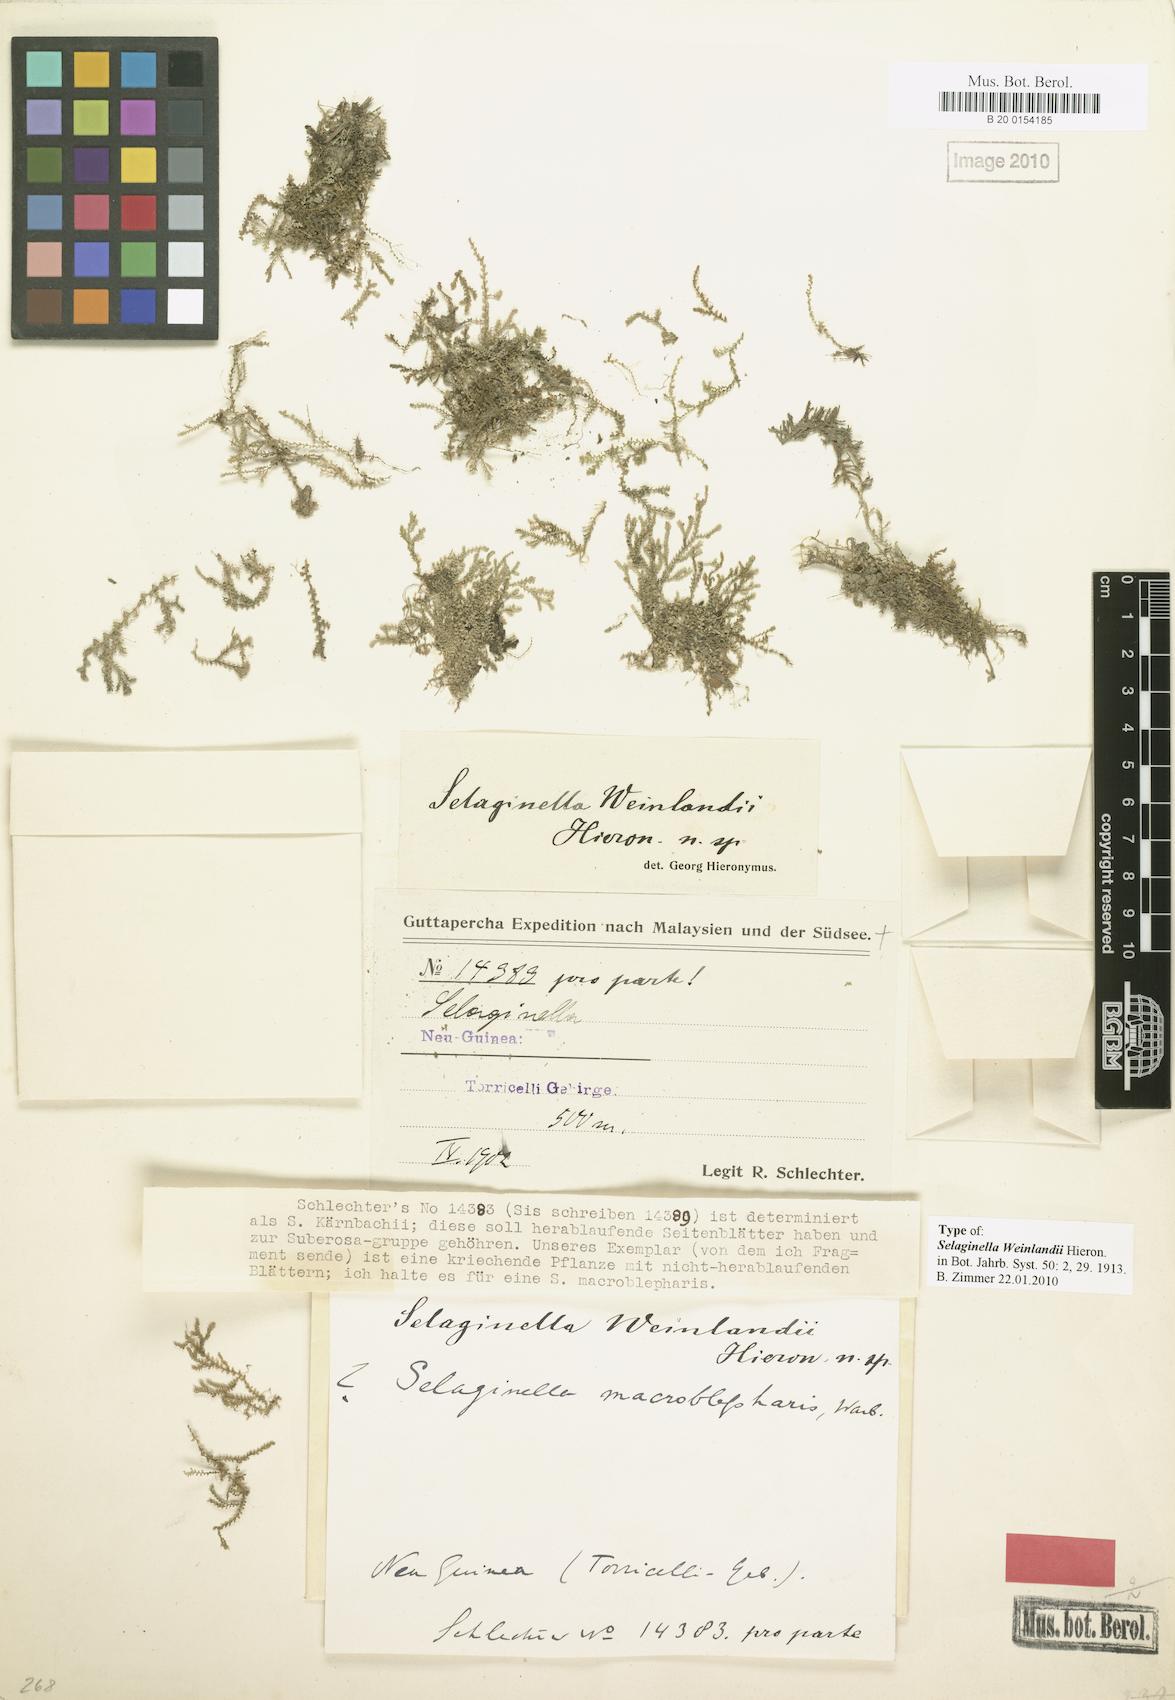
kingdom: Plantae
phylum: Tracheophyta
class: Lycopodiopsida
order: Selaginellales
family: Selaginellaceae
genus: Selaginella
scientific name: Selaginella weinlandii
